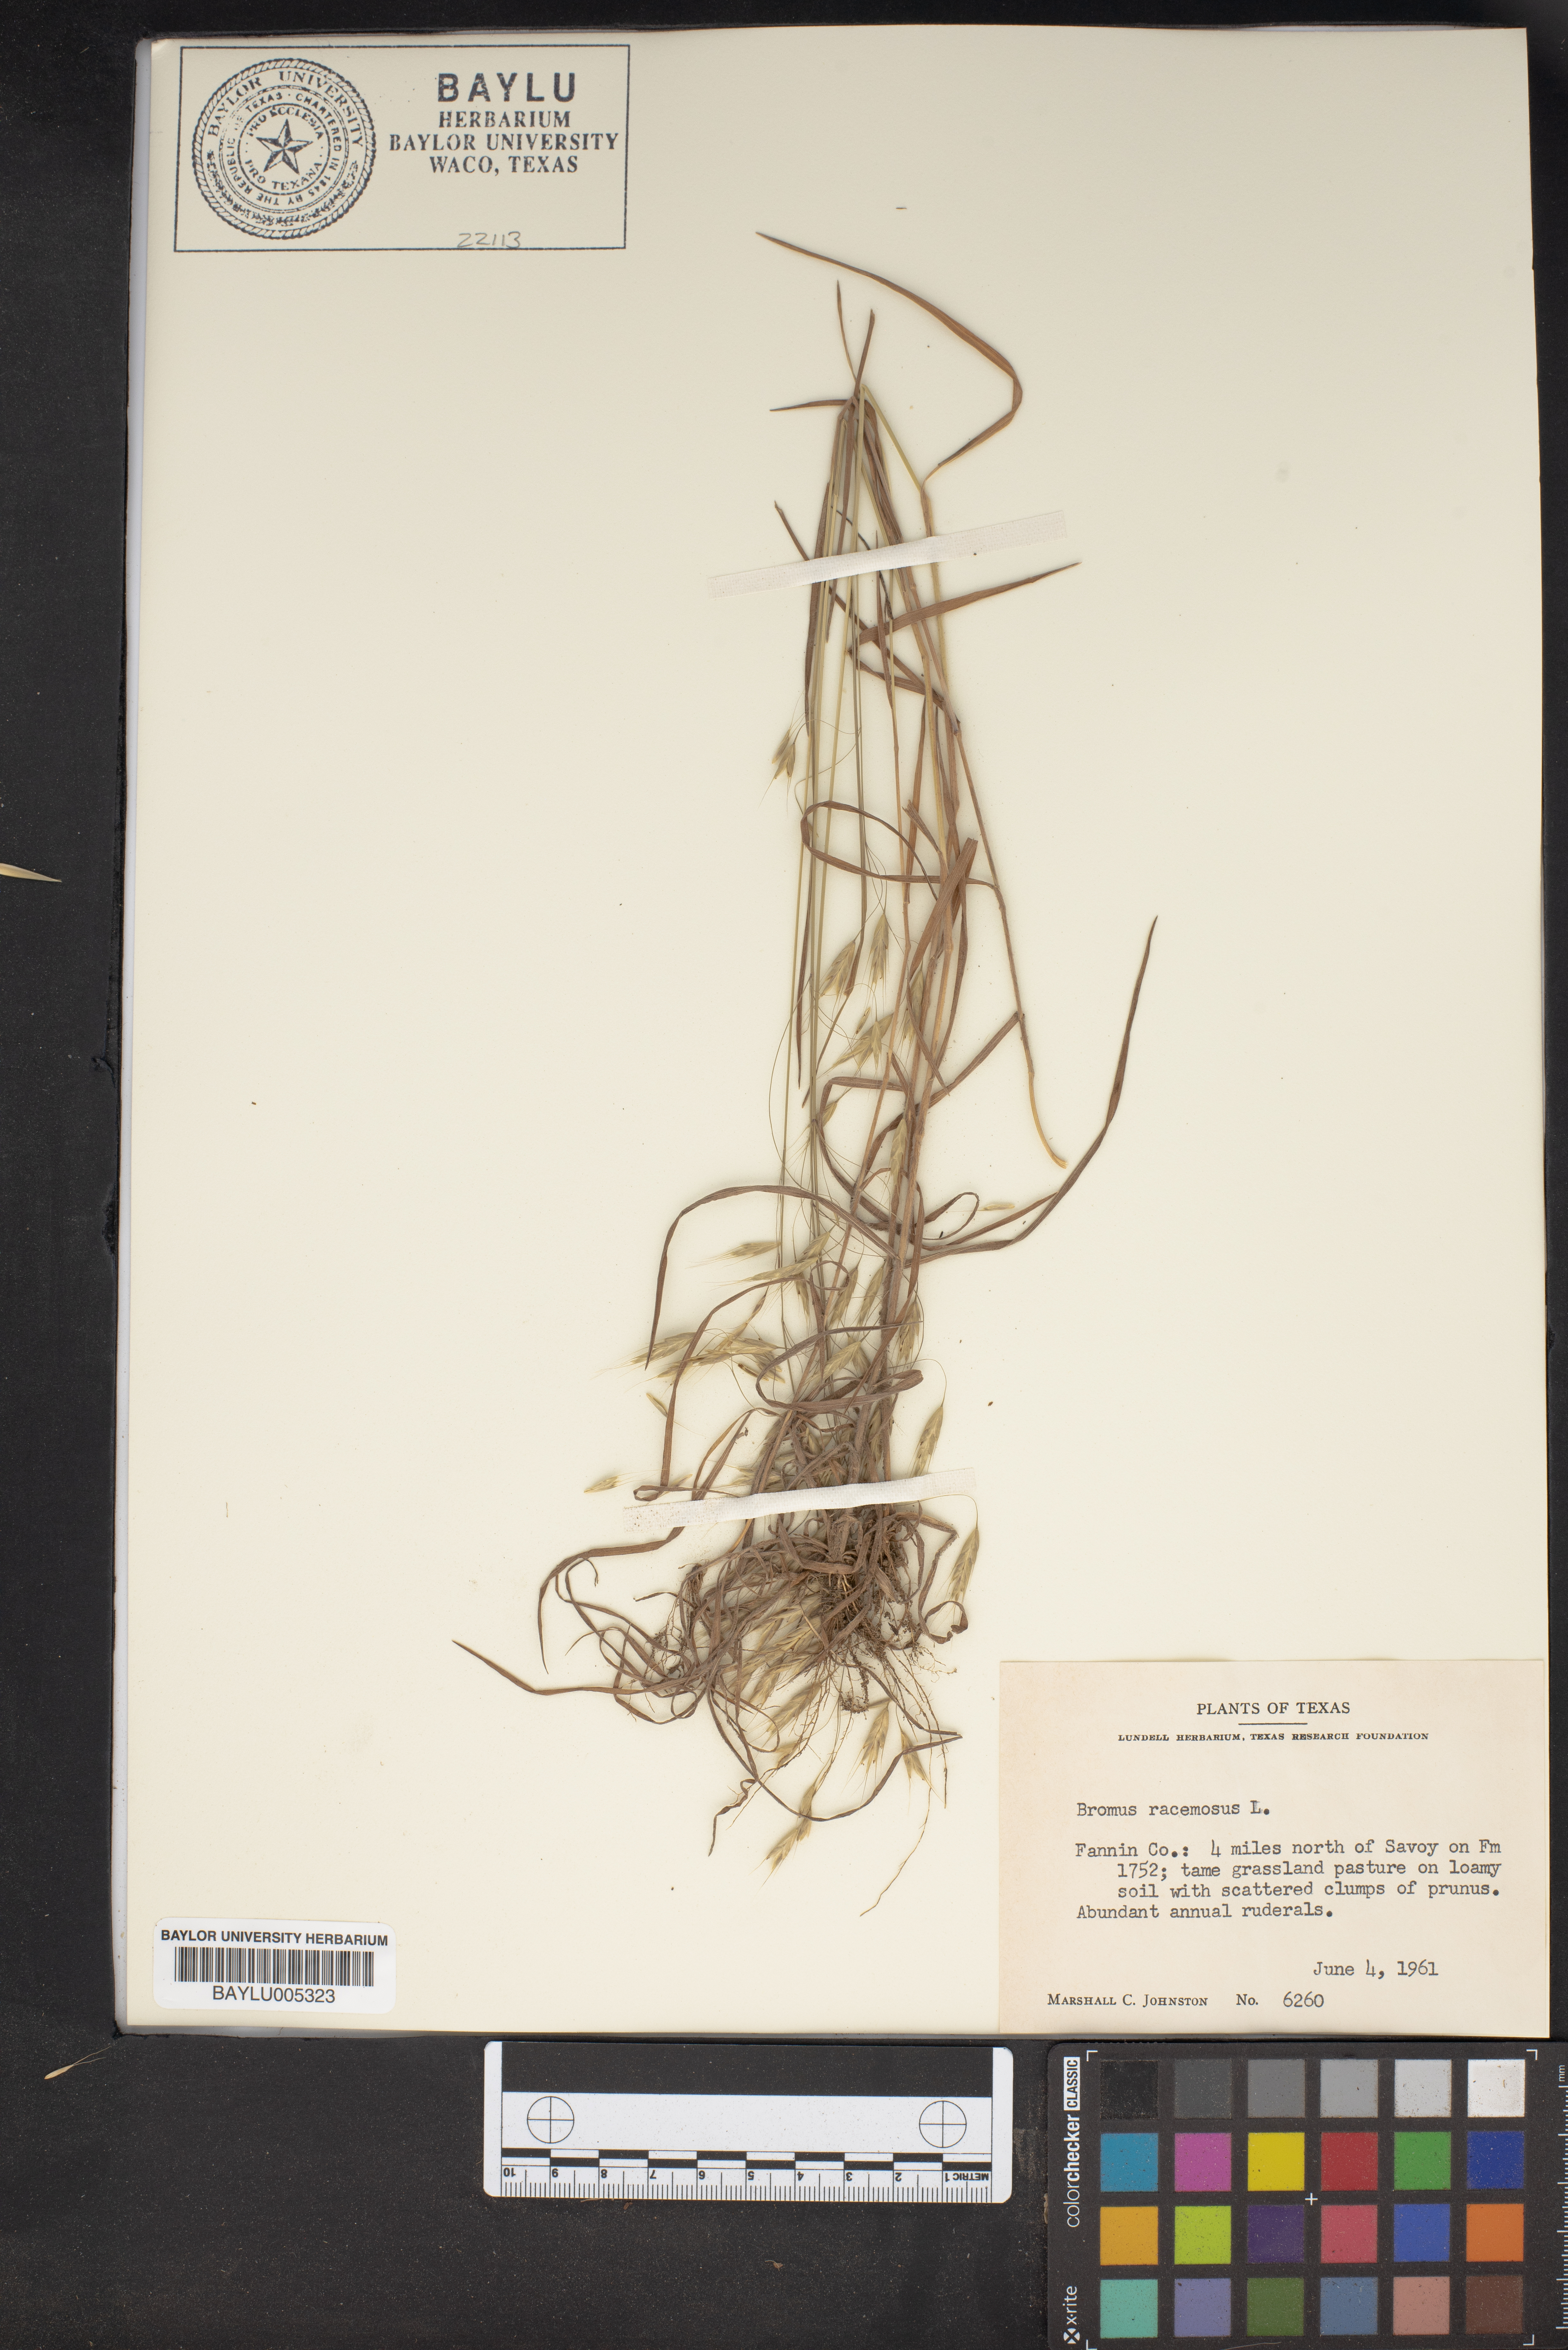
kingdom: Plantae
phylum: Tracheophyta
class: Liliopsida
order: Poales
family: Poaceae
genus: Bromus
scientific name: Bromus racemosus
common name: Bald brome
